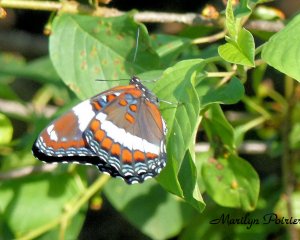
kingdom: Animalia
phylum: Arthropoda
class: Insecta
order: Lepidoptera
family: Nymphalidae
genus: Limenitis
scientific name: Limenitis arthemis
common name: Red-spotted Admiral
